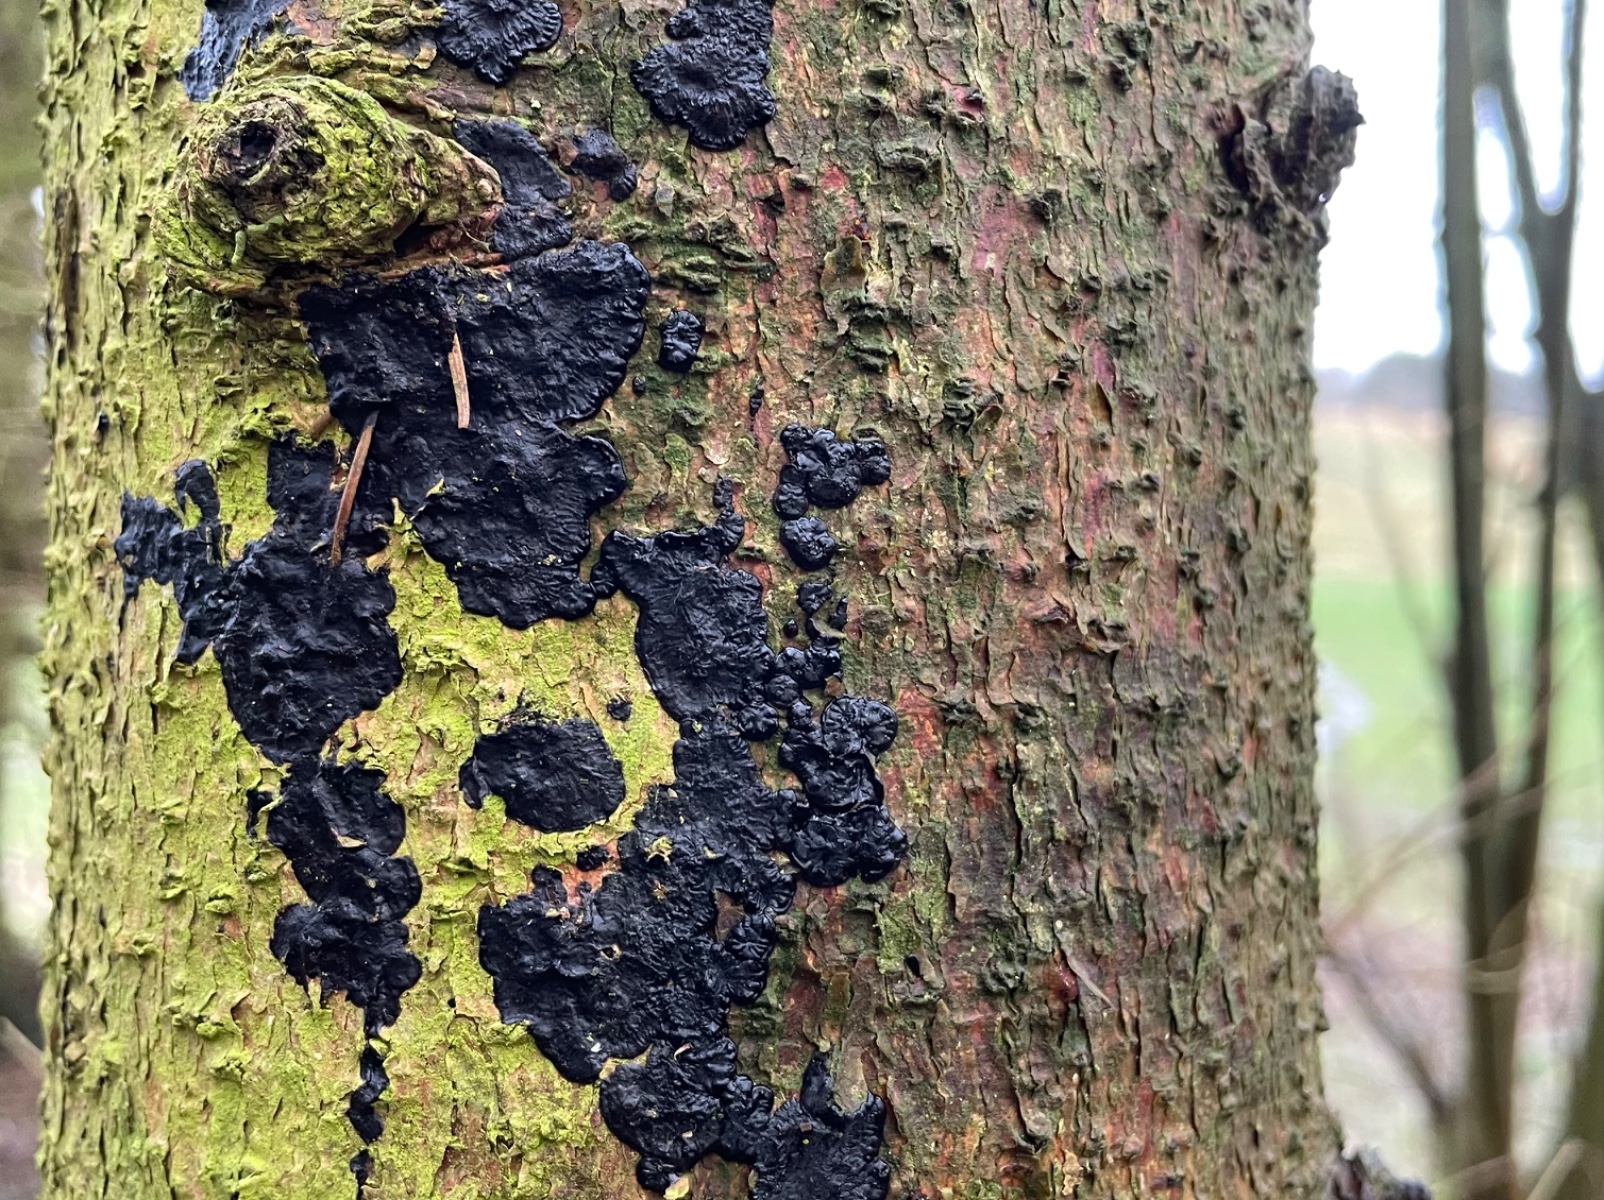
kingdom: Fungi
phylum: Basidiomycota
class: Agaricomycetes
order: Auriculariales
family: Auriculariaceae
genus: Exidia
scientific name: Exidia pithya
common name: gran-bævretop
